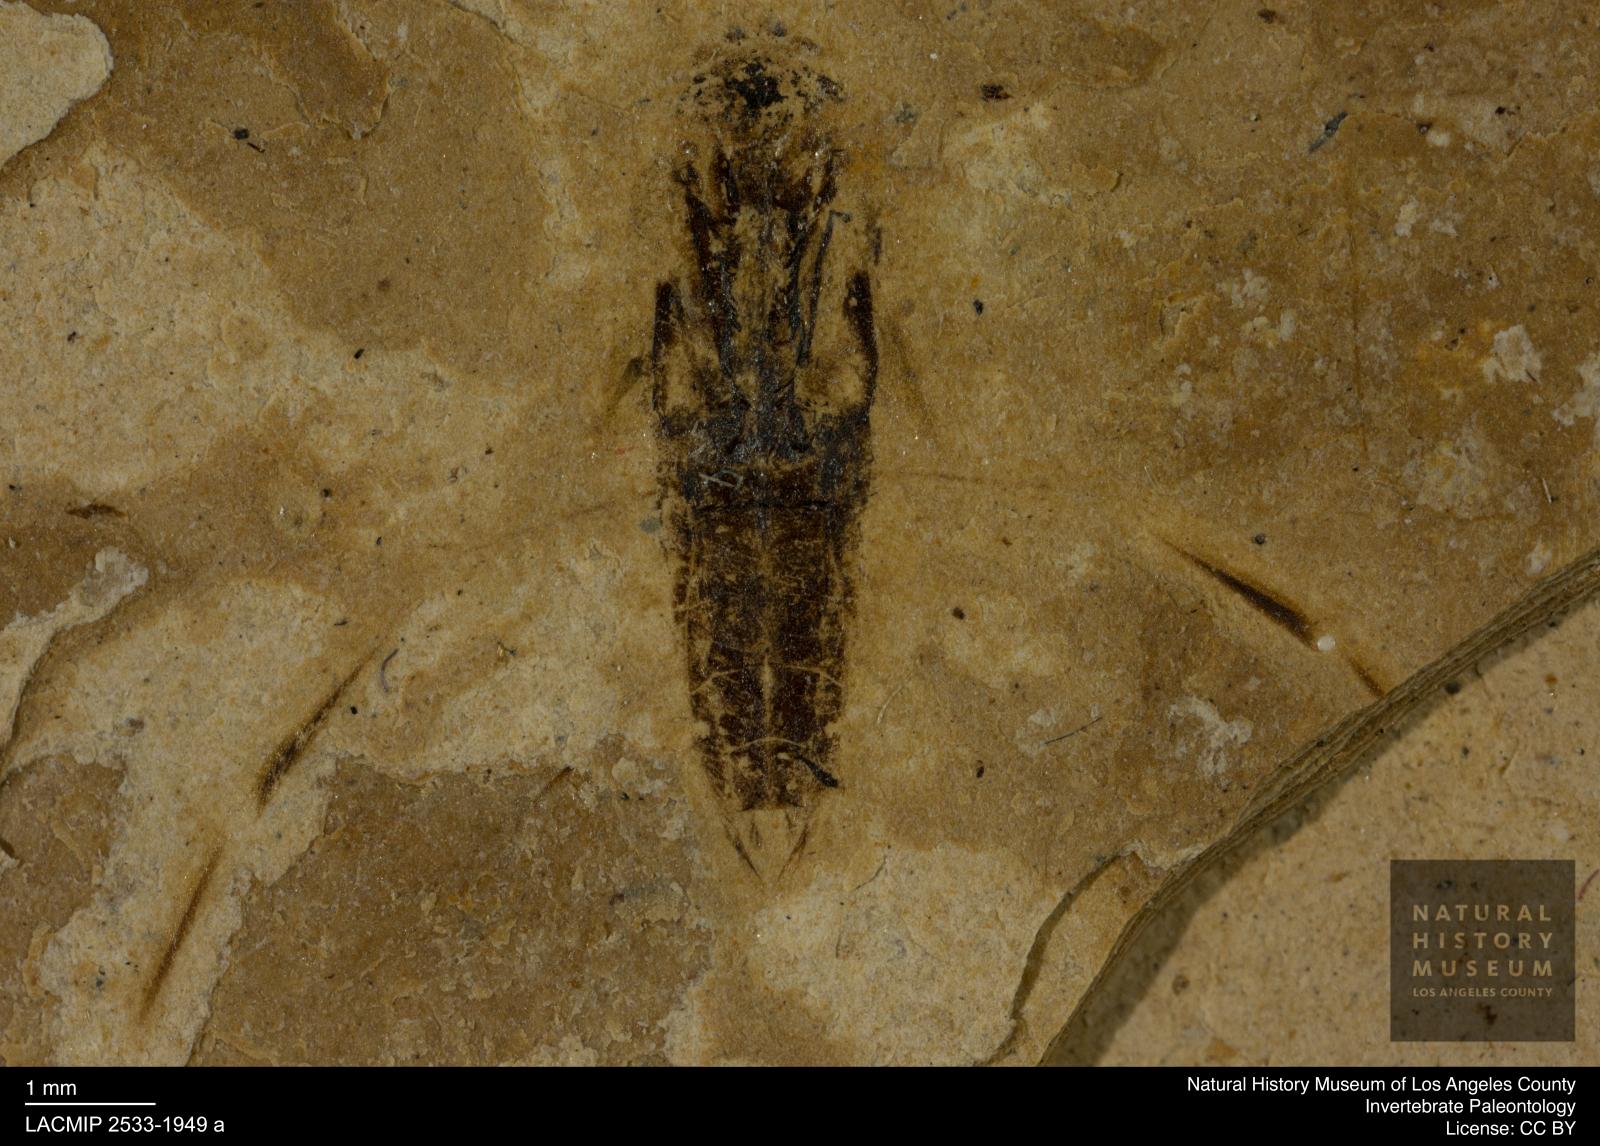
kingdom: Animalia
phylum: Arthropoda
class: Insecta
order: Hemiptera
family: Notonectidae
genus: Anisops
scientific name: Anisops Notonecta deichmuelleri
